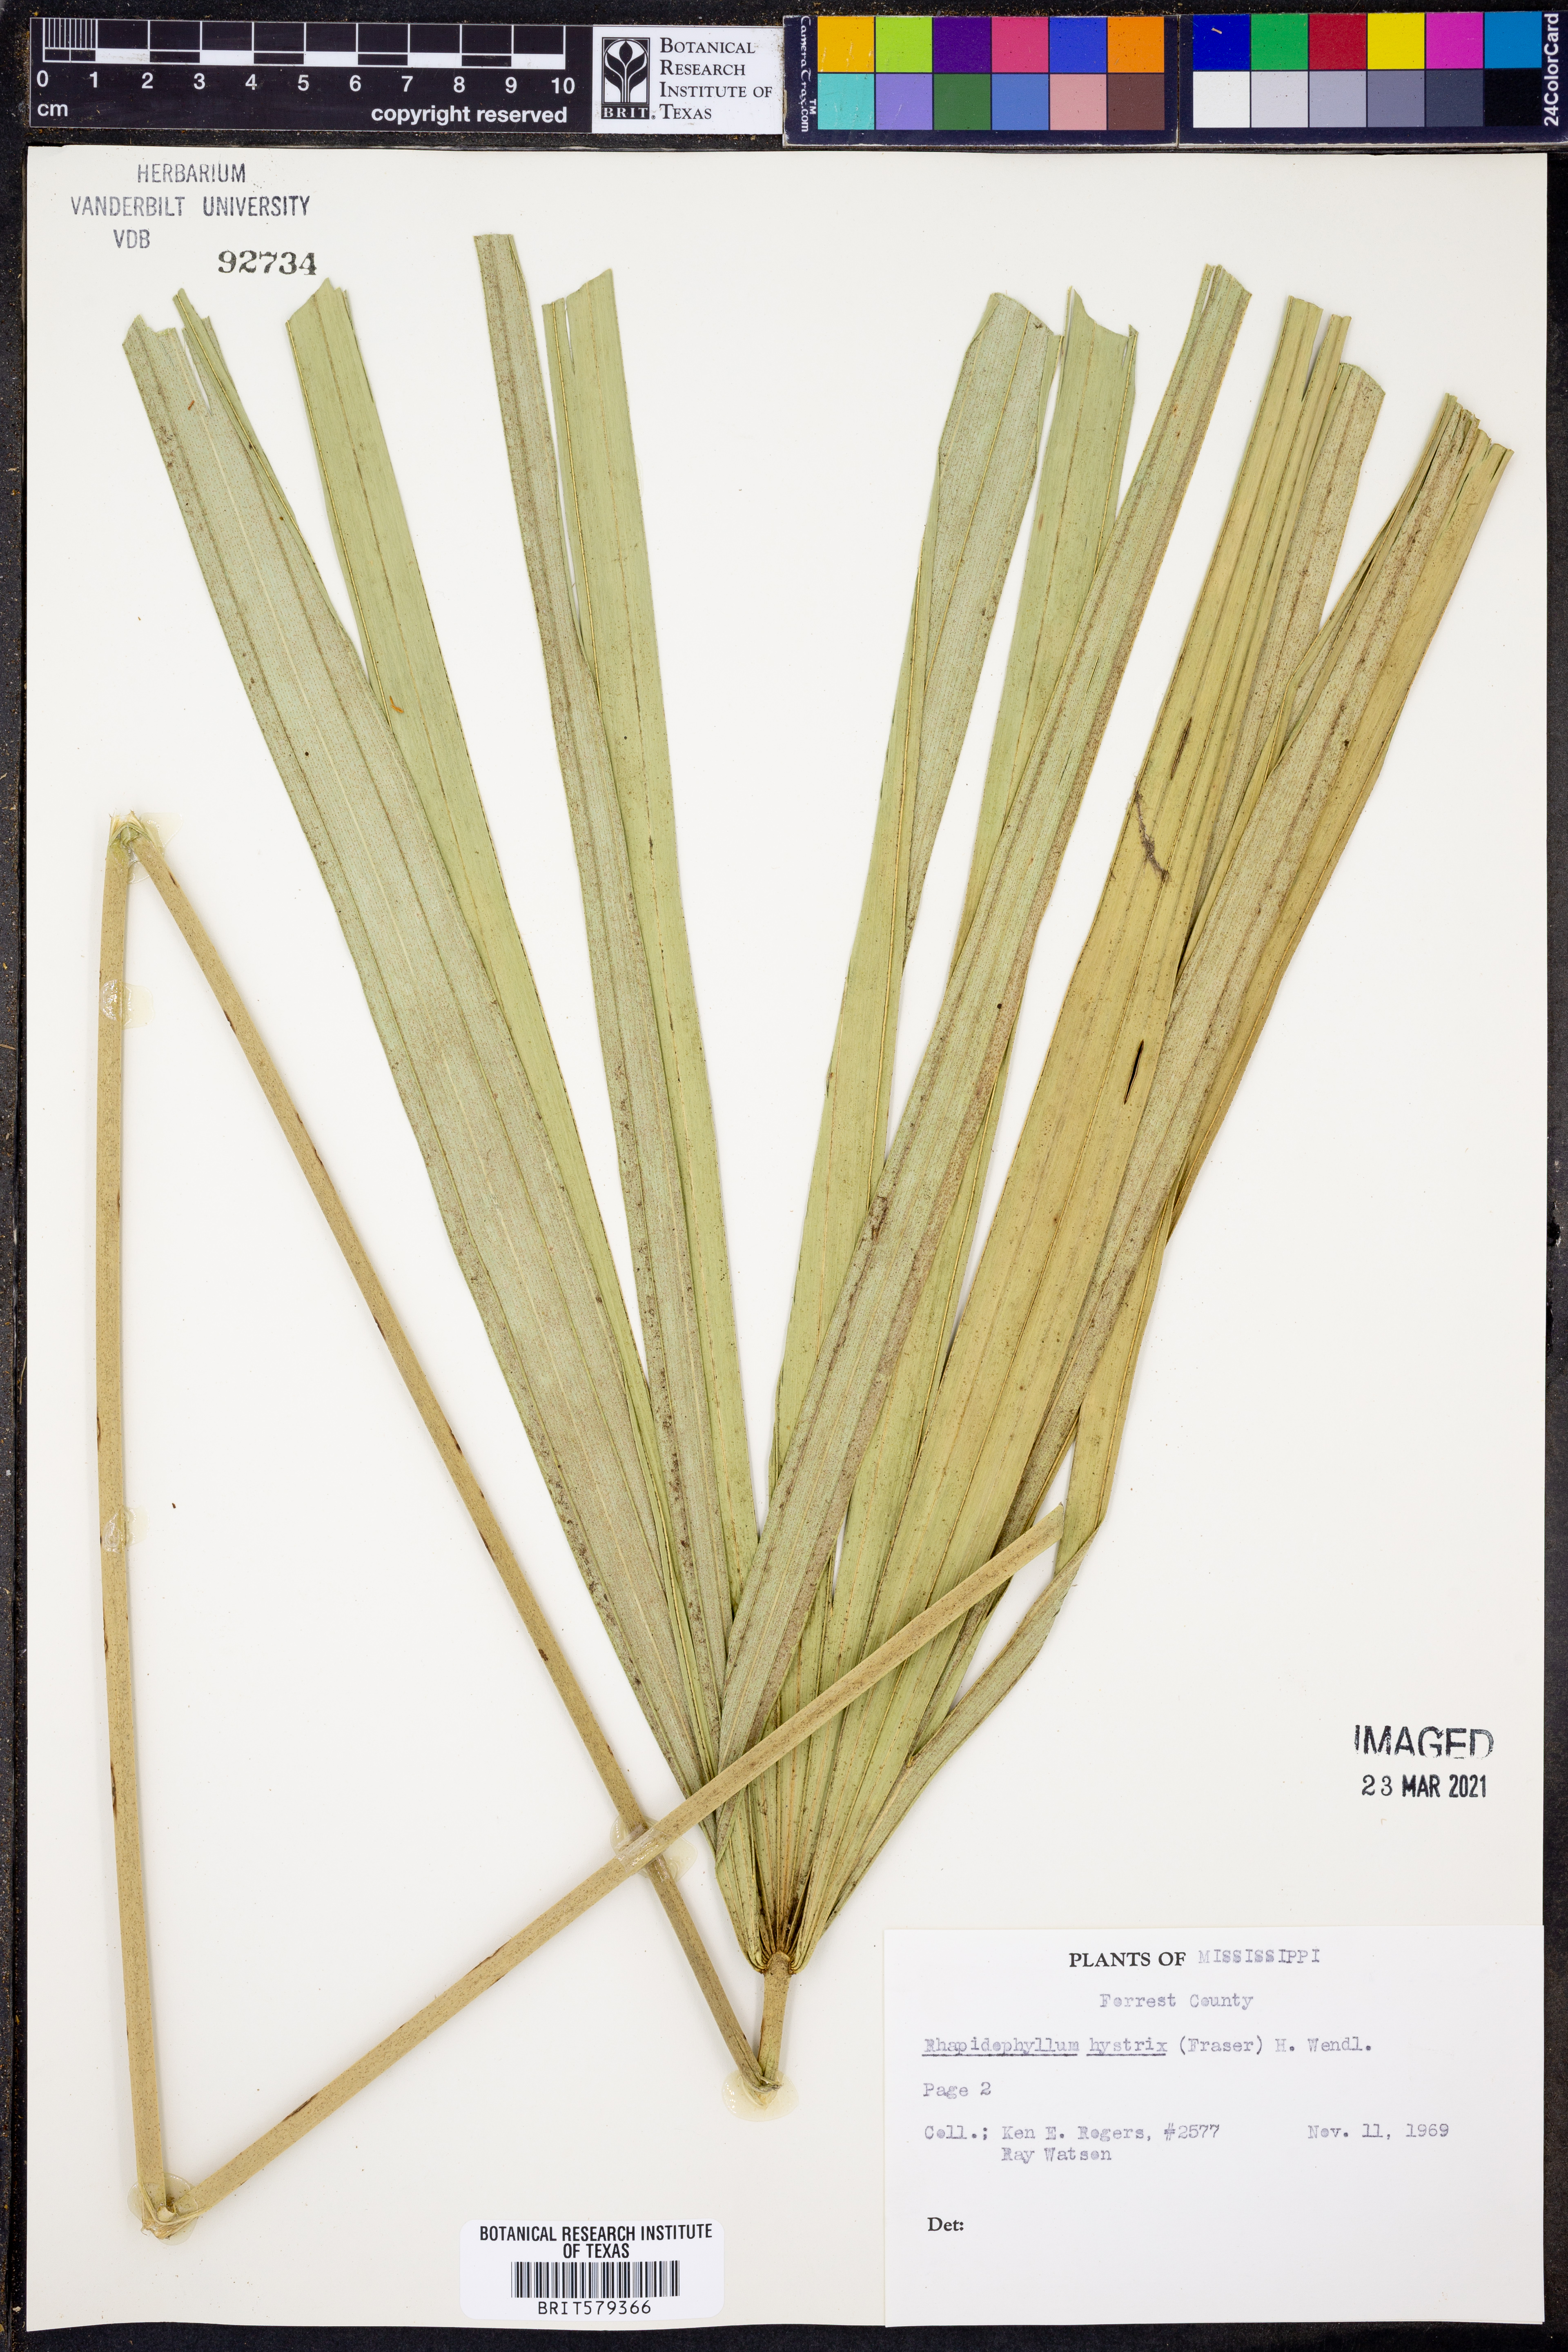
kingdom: Plantae
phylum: Tracheophyta
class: Liliopsida
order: Arecales
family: Arecaceae
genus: Rhapidophyllum
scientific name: Rhapidophyllum hystrix
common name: Porcupine palm
